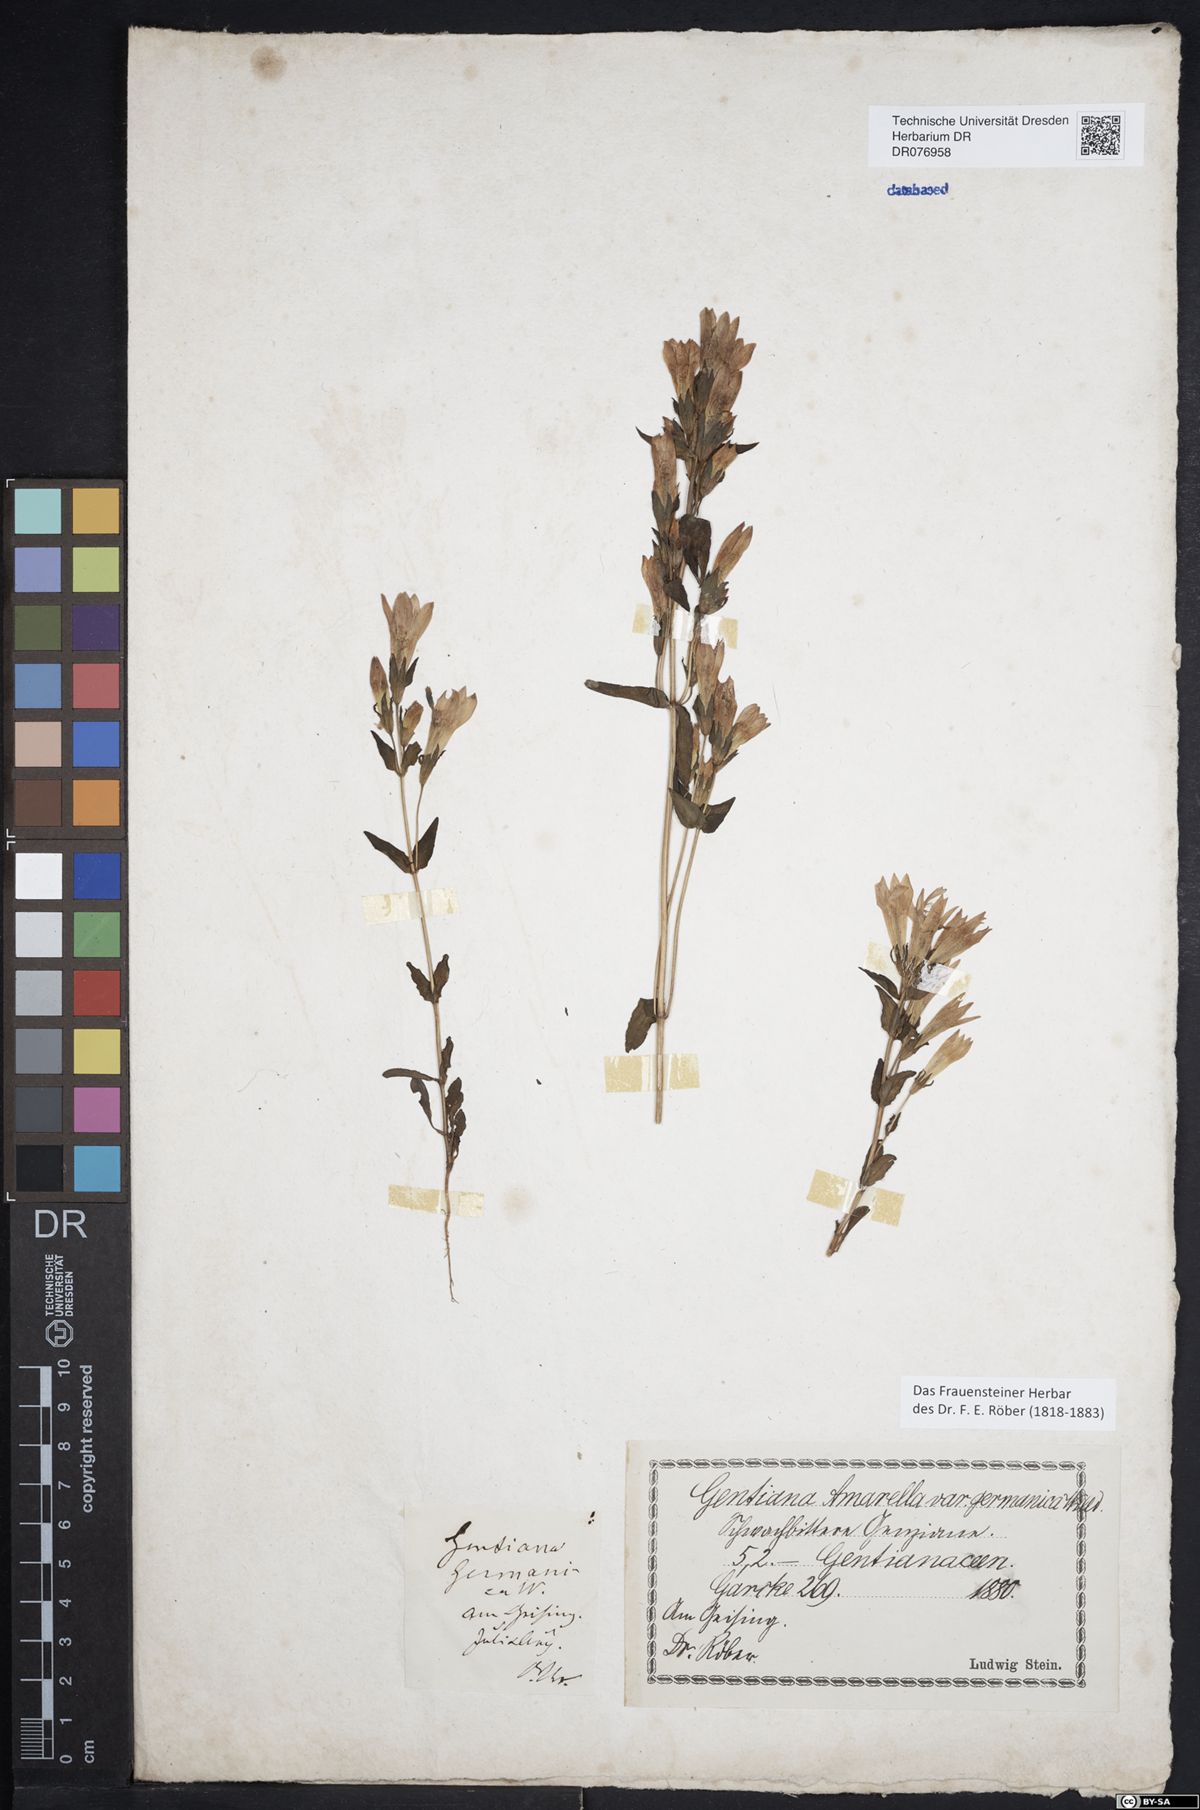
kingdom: Plantae
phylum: Tracheophyta
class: Magnoliopsida
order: Gentianales
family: Gentianaceae
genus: Gentianella
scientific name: Gentianella praecox
